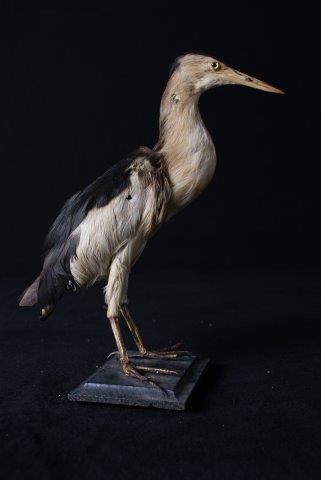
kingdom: Animalia
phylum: Chordata
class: Aves
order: Pelecaniformes
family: Ardeidae
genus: Ixobrychus
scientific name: Ixobrychus minutus
